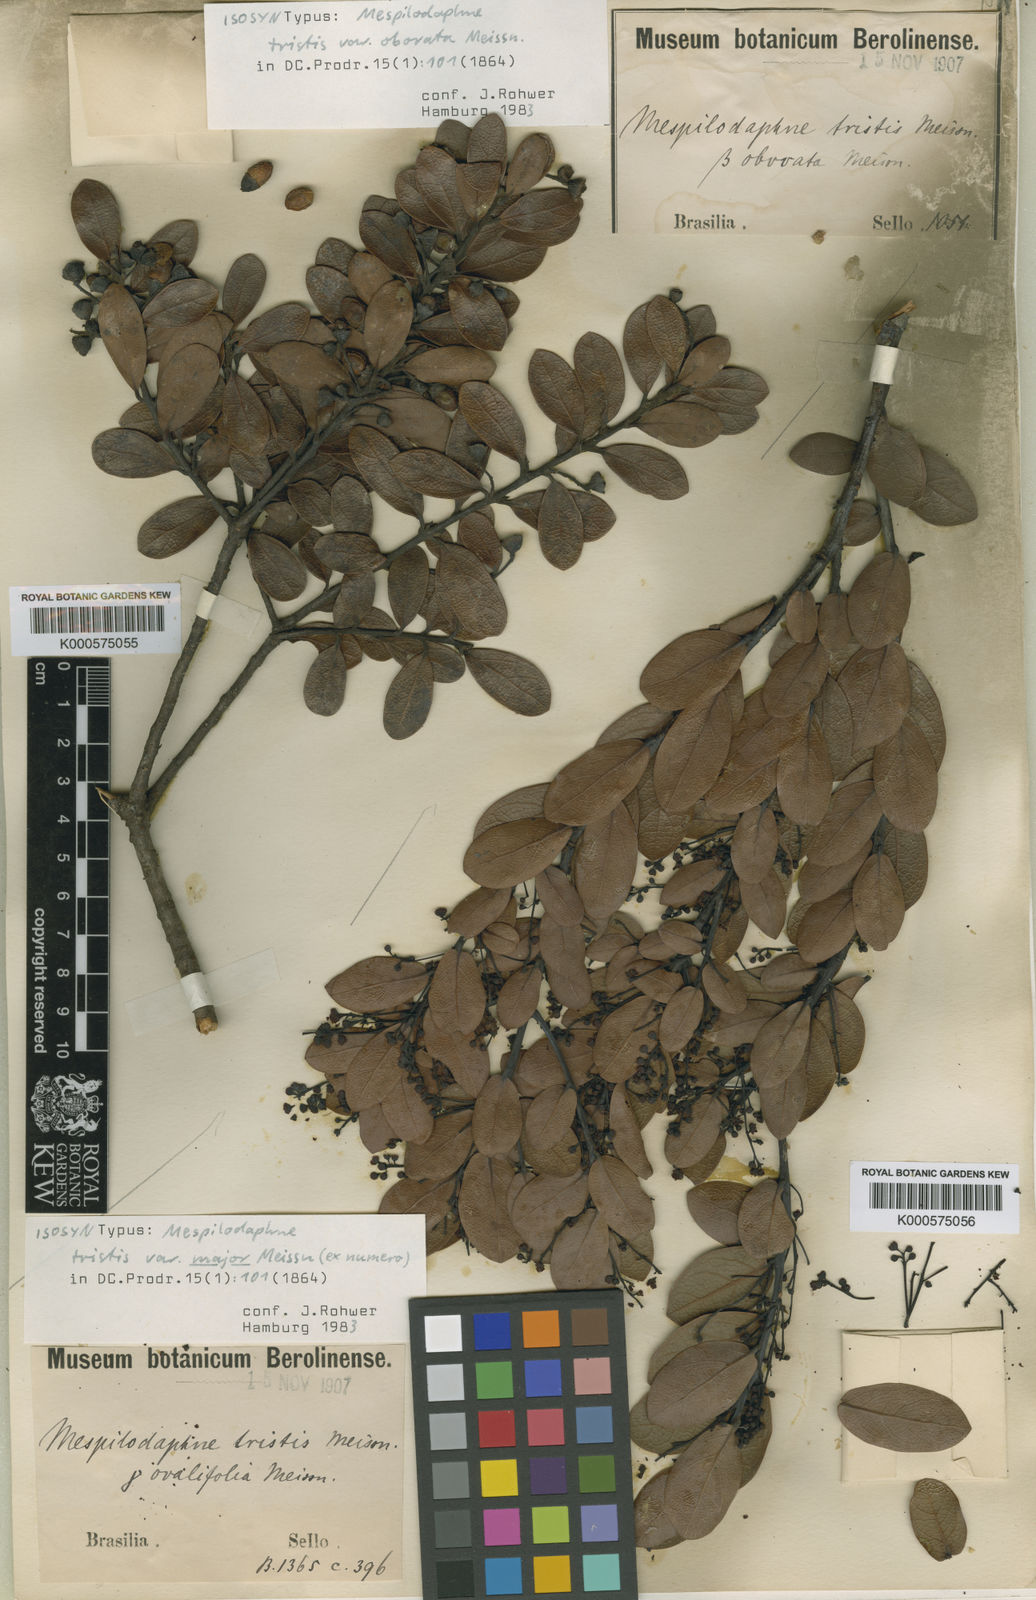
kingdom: Plantae
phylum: Tracheophyta
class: Magnoliopsida
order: Laurales
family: Lauraceae
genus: Mespilodaphne
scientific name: Mespilodaphne tristis
